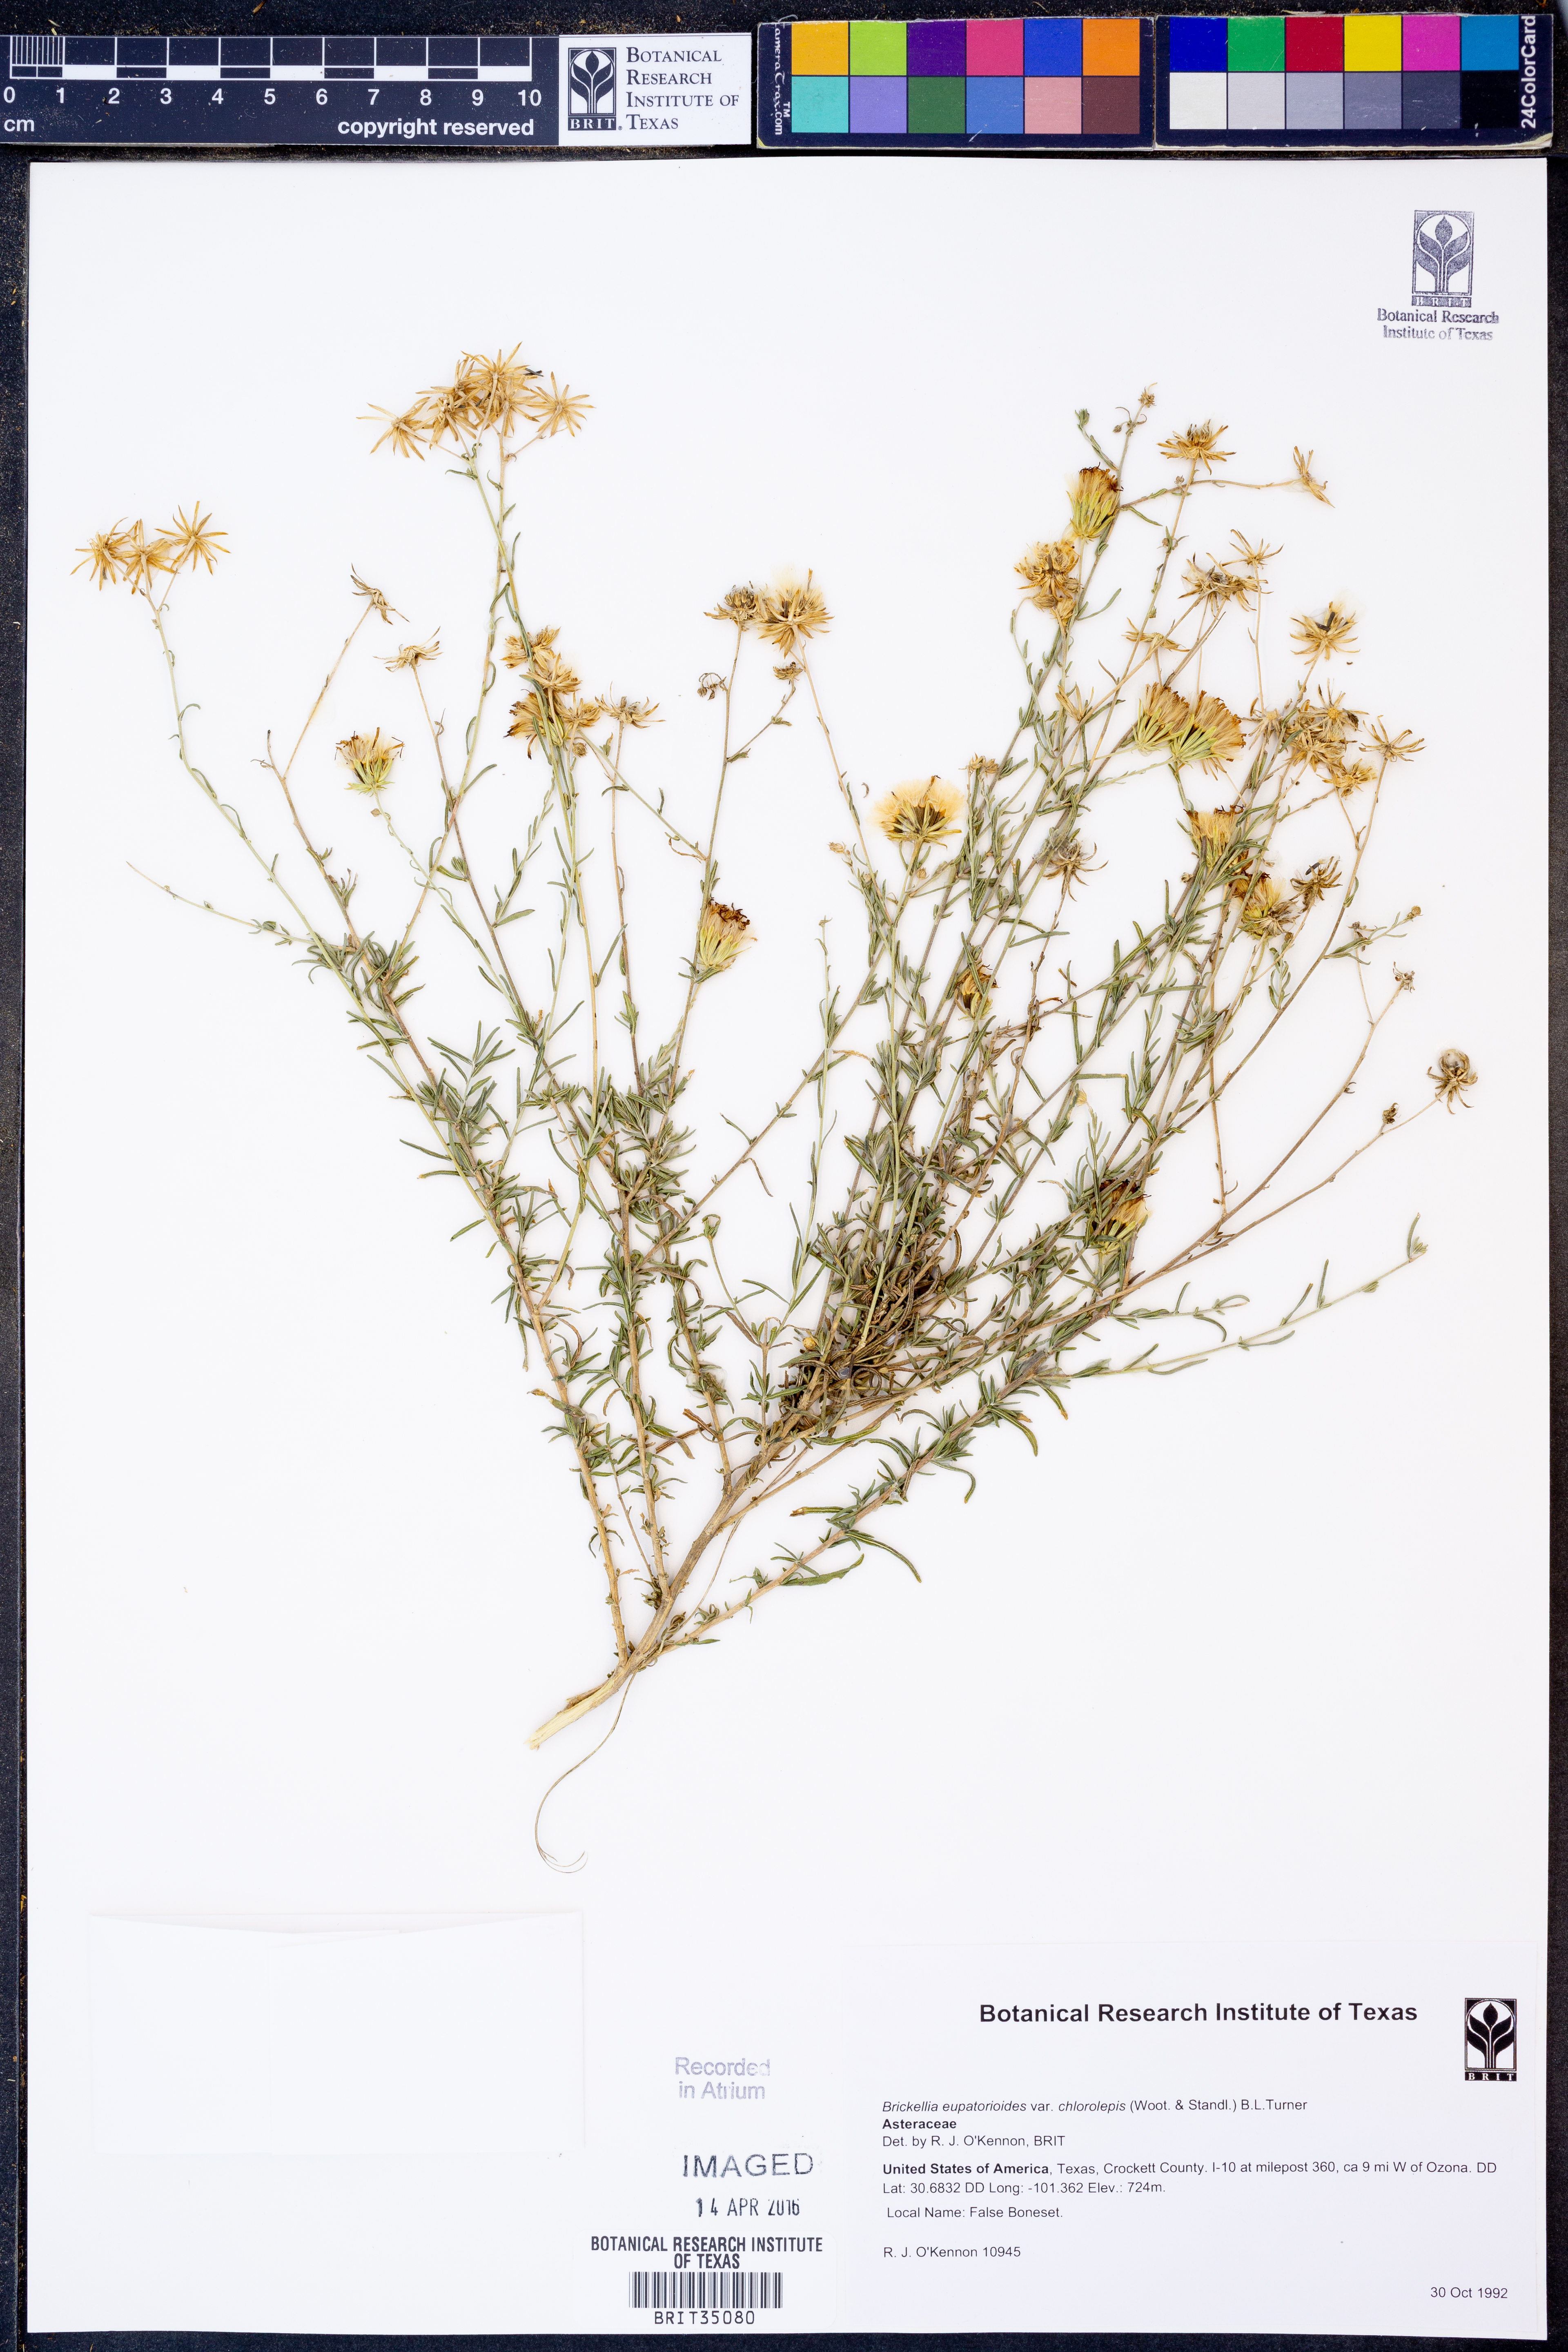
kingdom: Plantae
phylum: Tracheophyta
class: Magnoliopsida
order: Asterales
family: Asteraceae
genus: Brickellia
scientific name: Brickellia leptophylla
